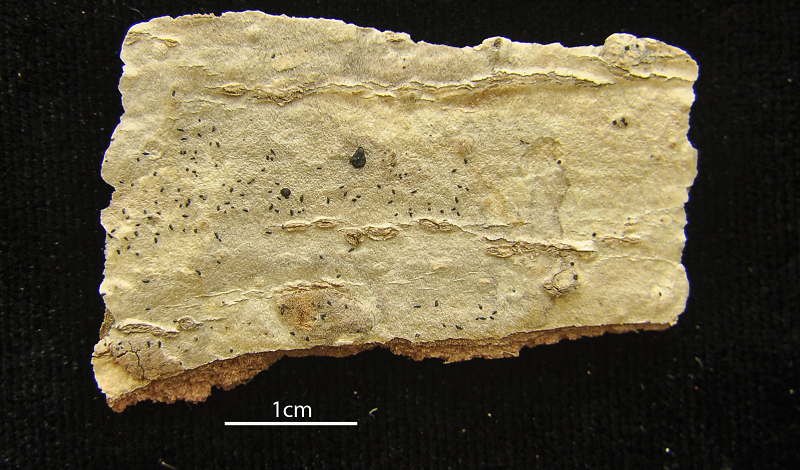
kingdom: Fungi
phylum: Ascomycota
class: Arthoniomycetes
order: Arthoniales
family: Arthoniaceae
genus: Arthonia
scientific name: Arthonia excipienda
